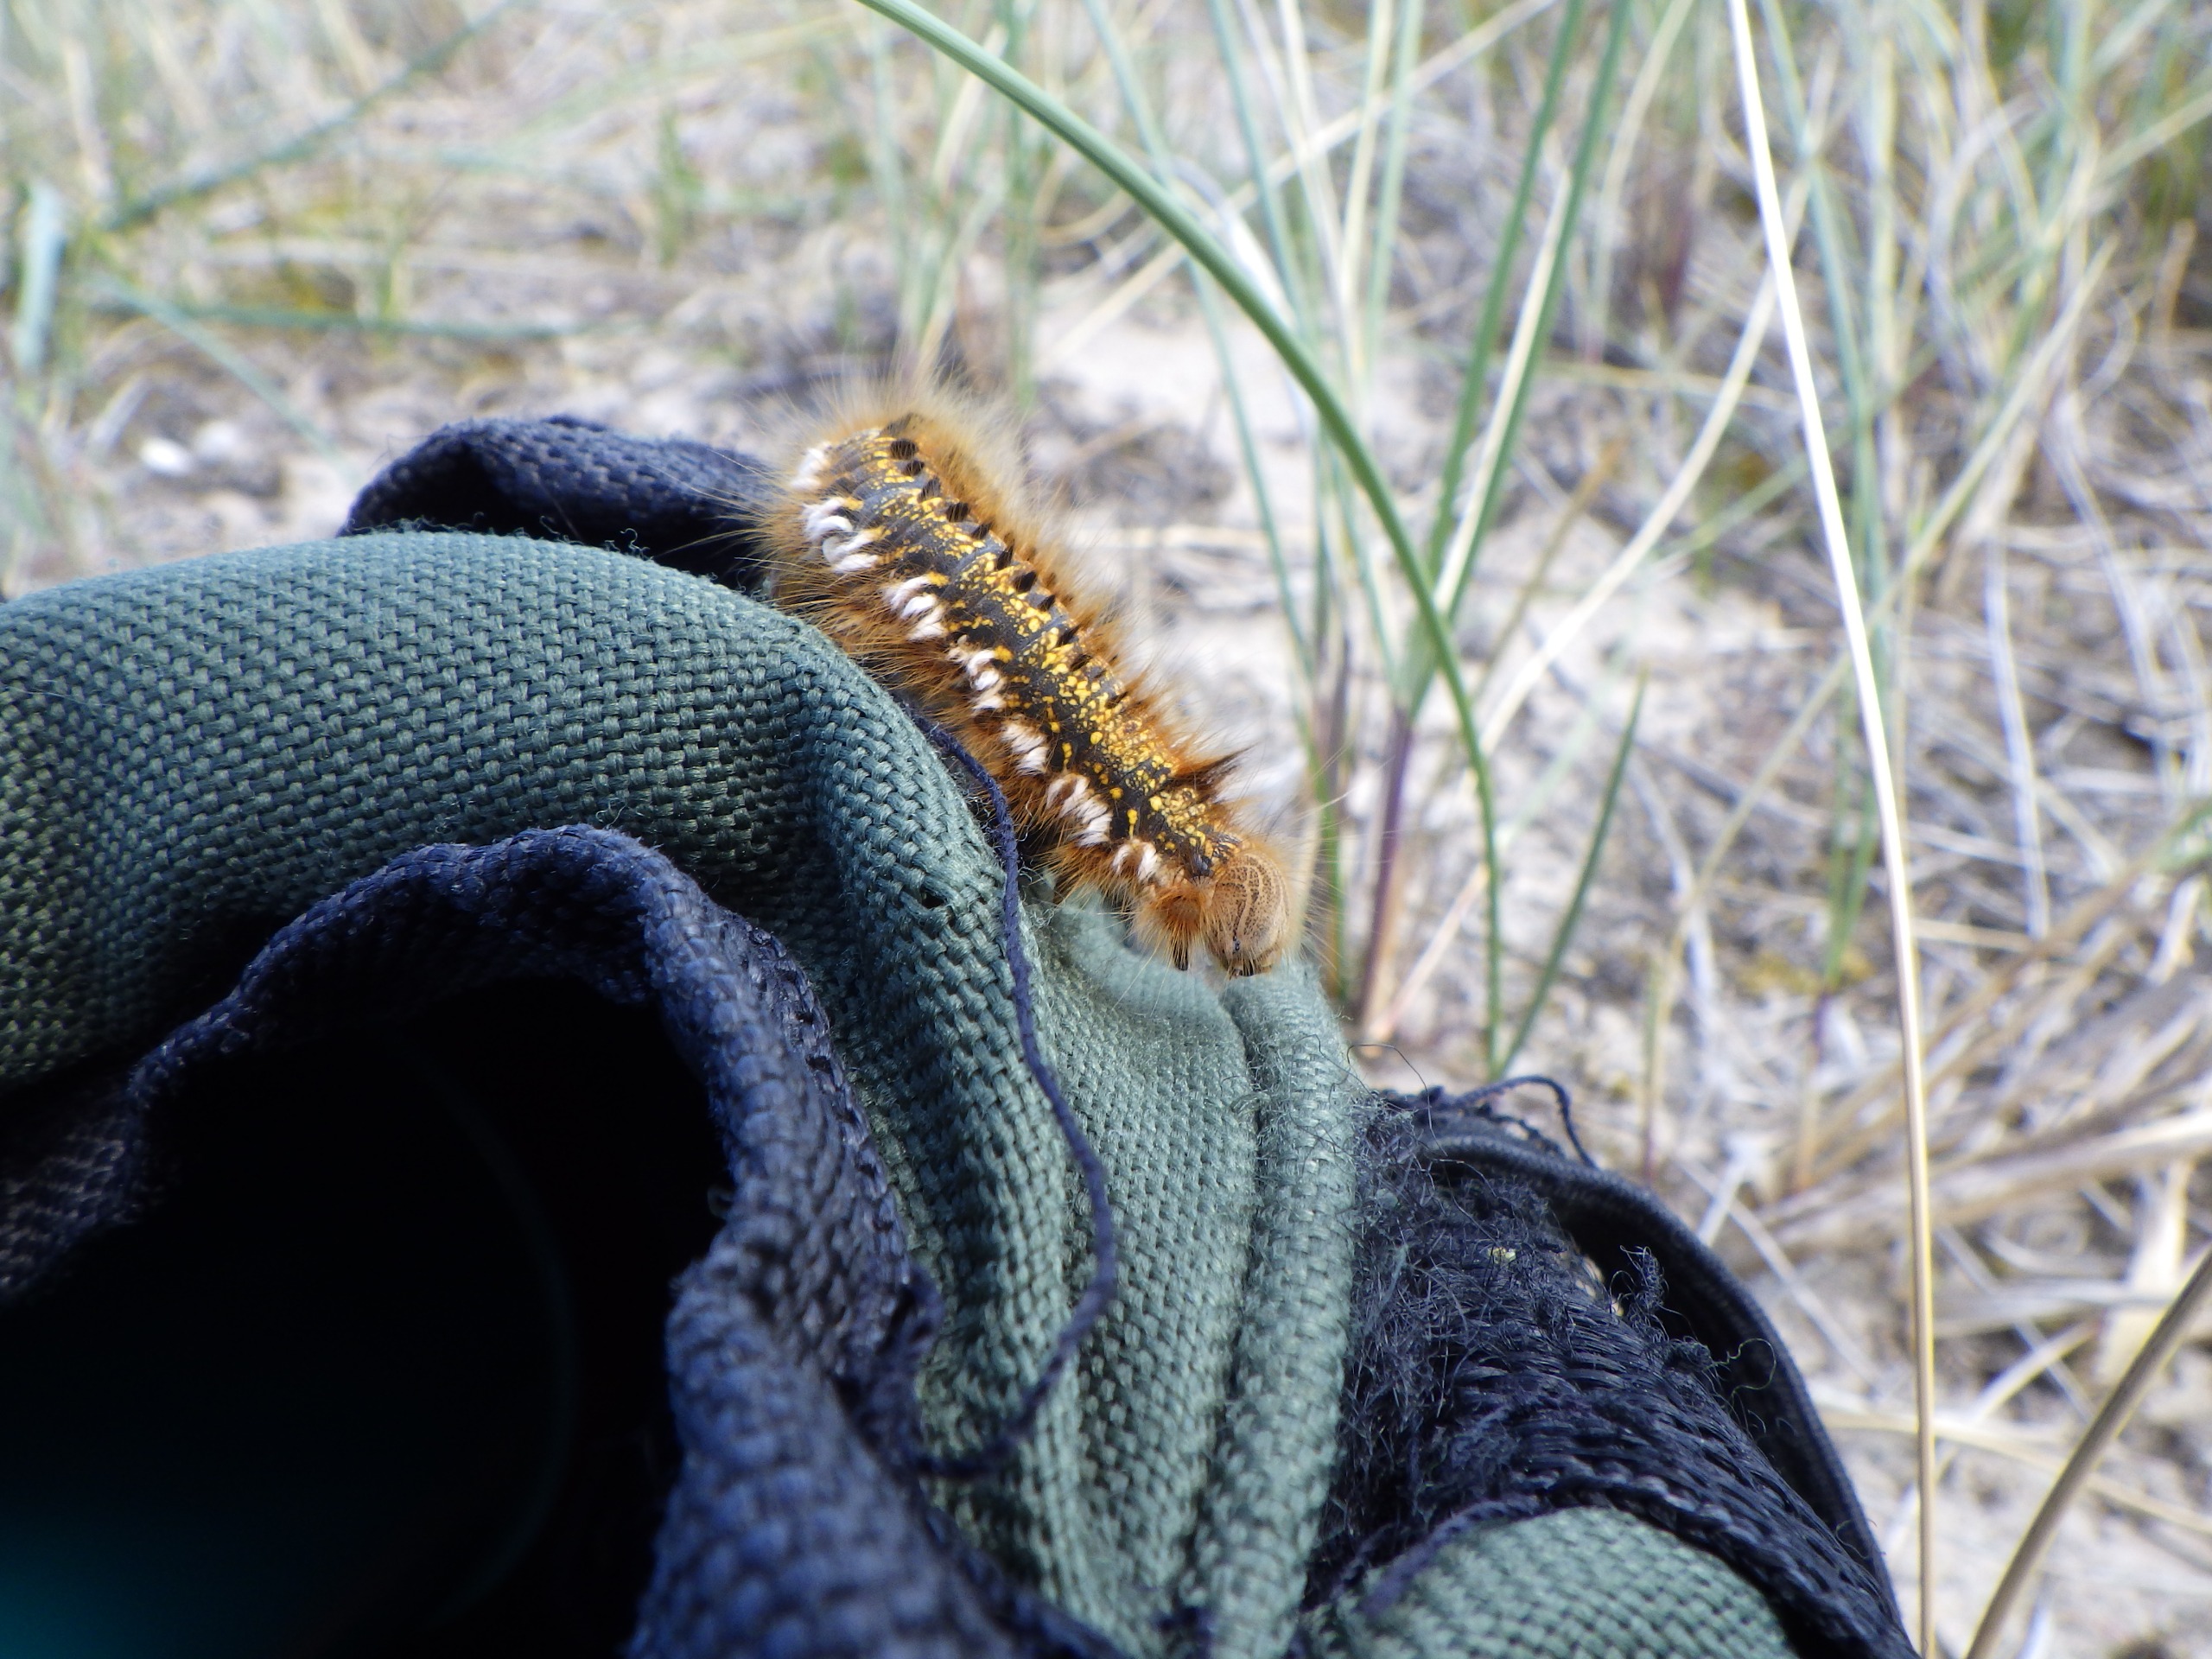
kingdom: Animalia
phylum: Arthropoda
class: Insecta
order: Lepidoptera
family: Lasiocampidae
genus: Euthrix
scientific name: Euthrix potatoria
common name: Græsspinder
